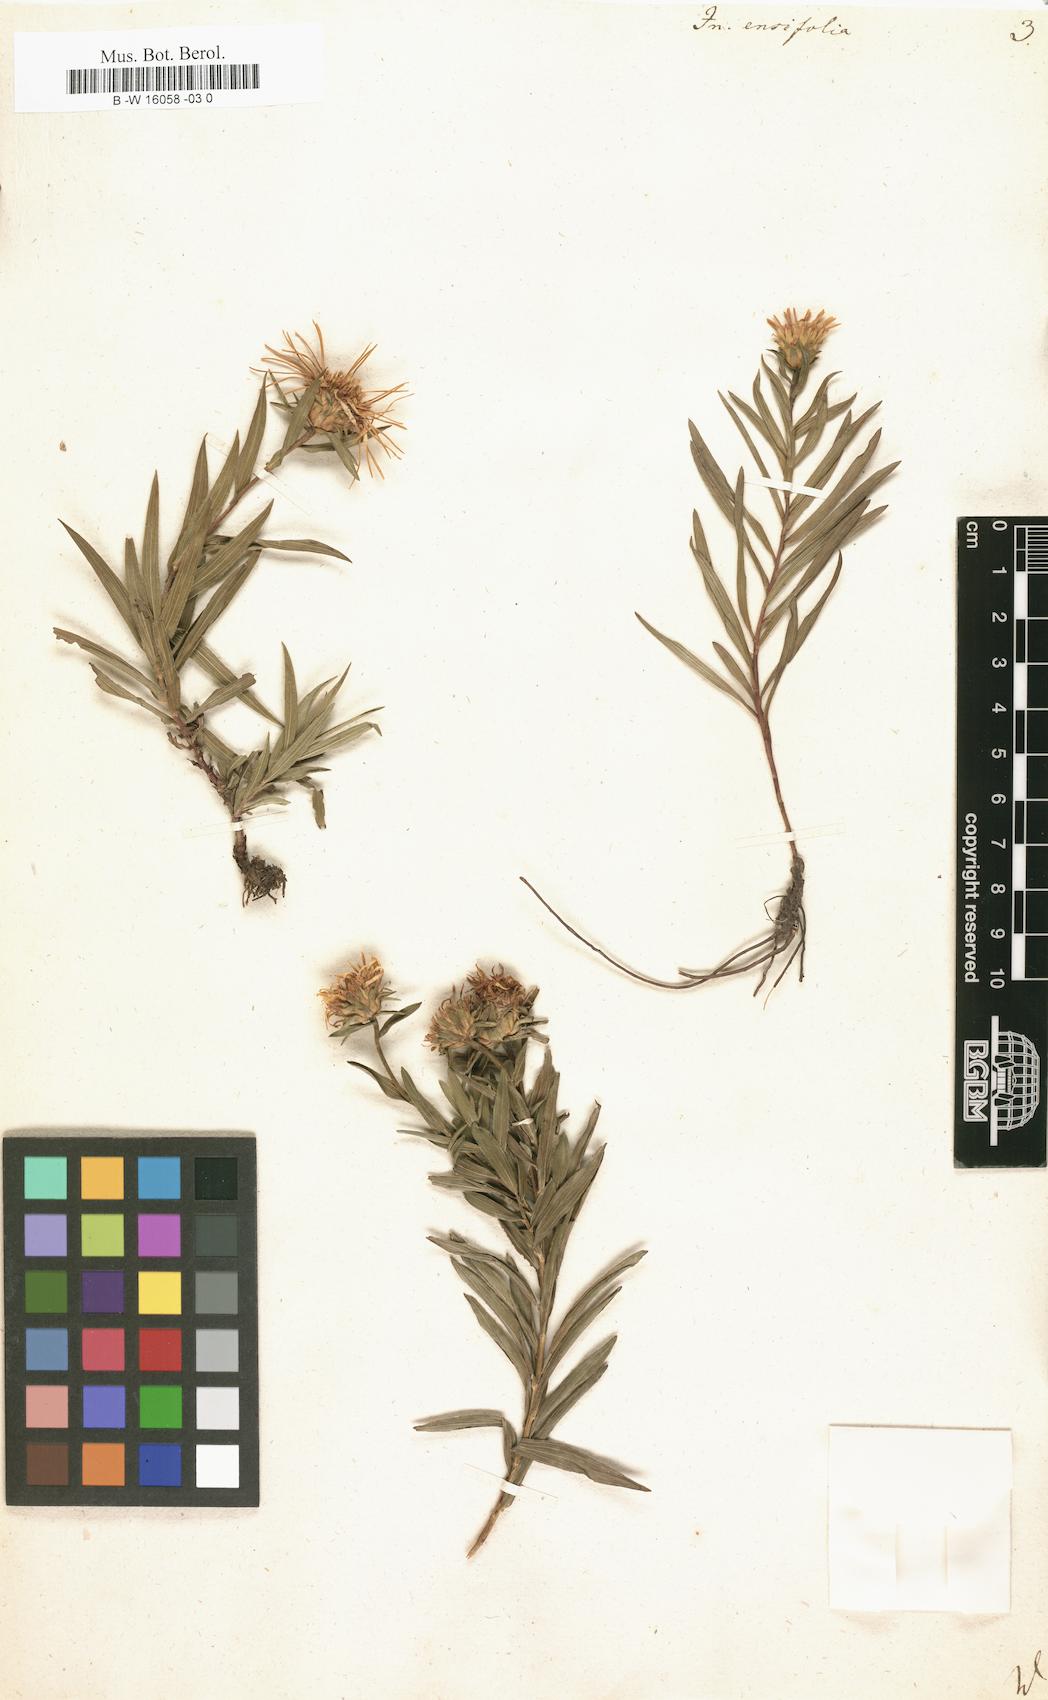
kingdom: Plantae
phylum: Tracheophyta
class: Magnoliopsida
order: Asterales
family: Asteraceae
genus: Pentanema
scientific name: Pentanema ensifolium
